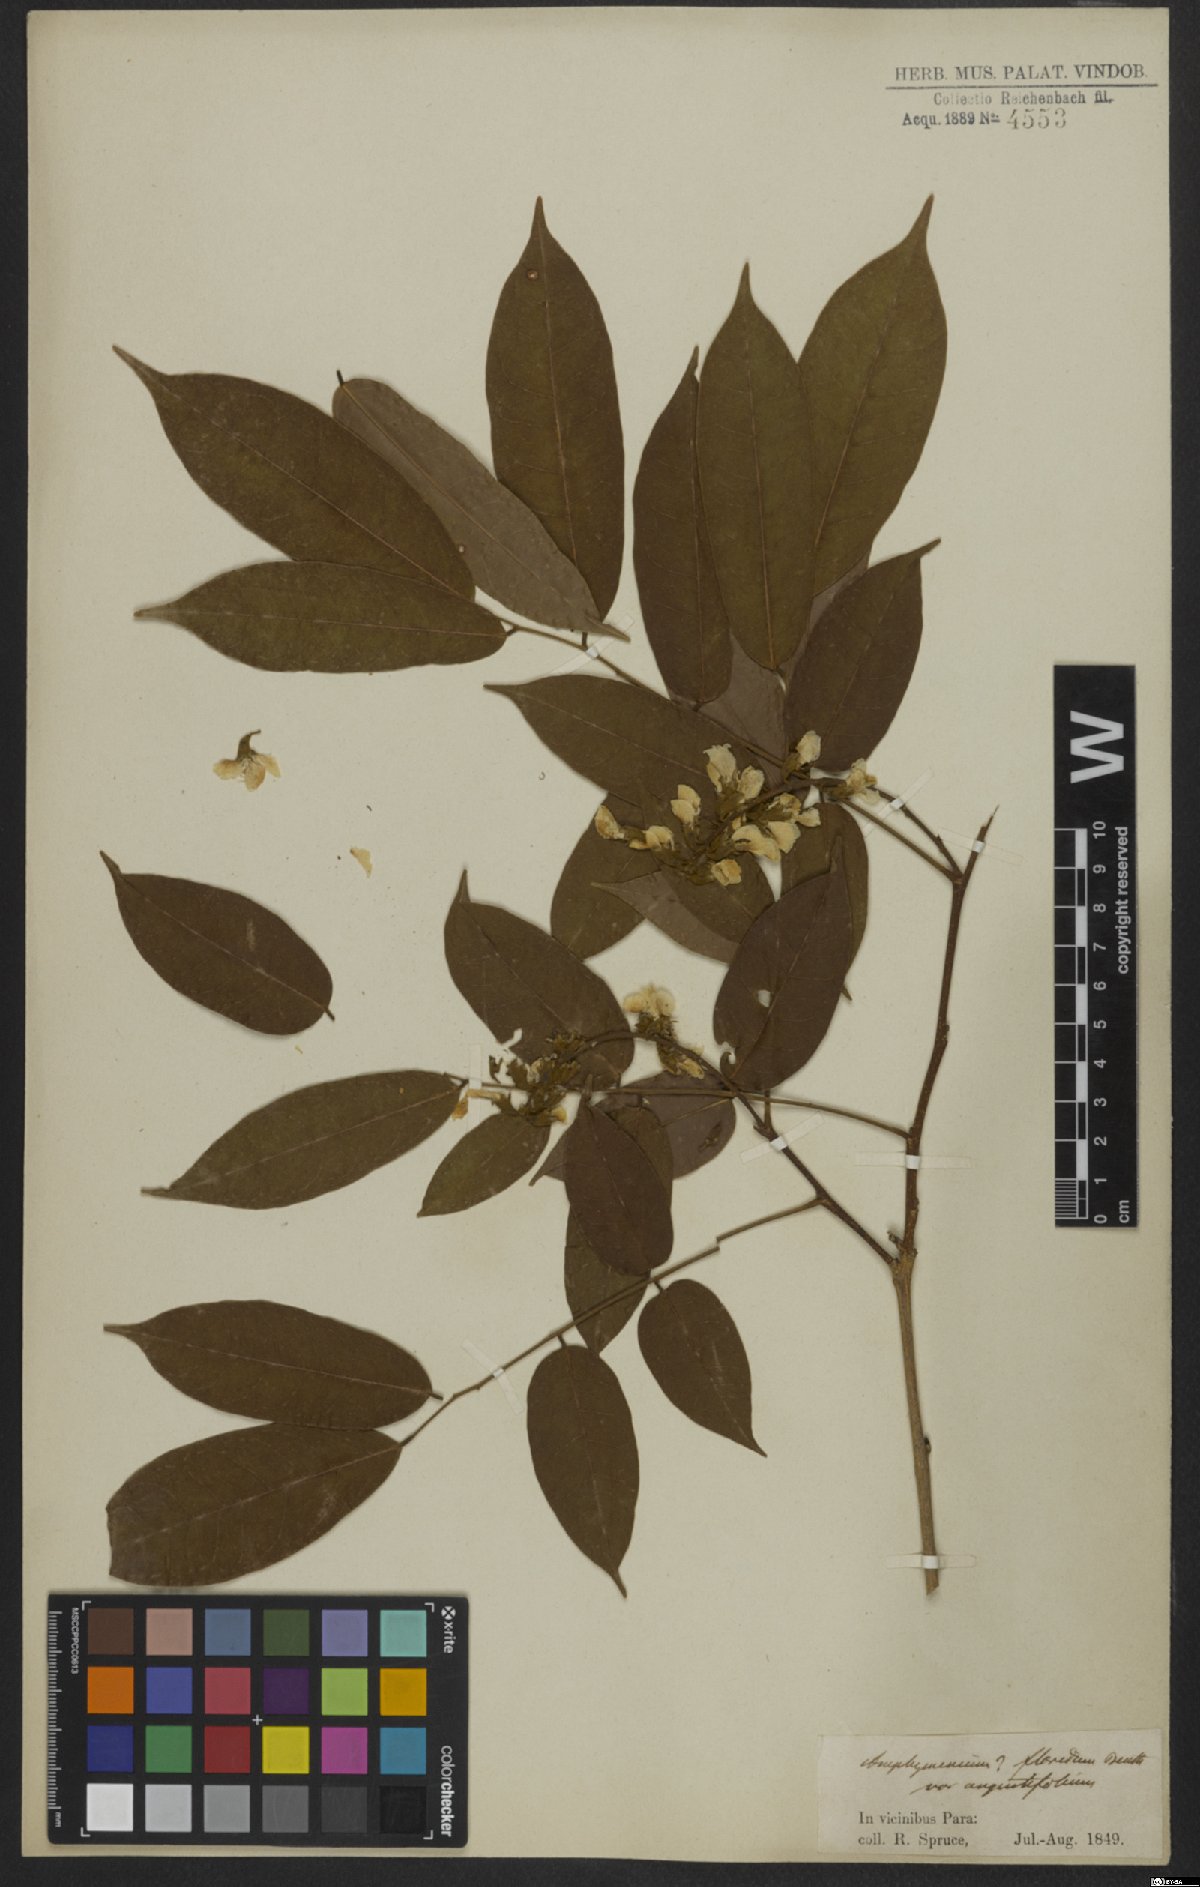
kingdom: Plantae
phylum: Tracheophyta
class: Magnoliopsida
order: Fabales
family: Fabaceae
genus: Pterocarpus
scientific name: Pterocarpus
